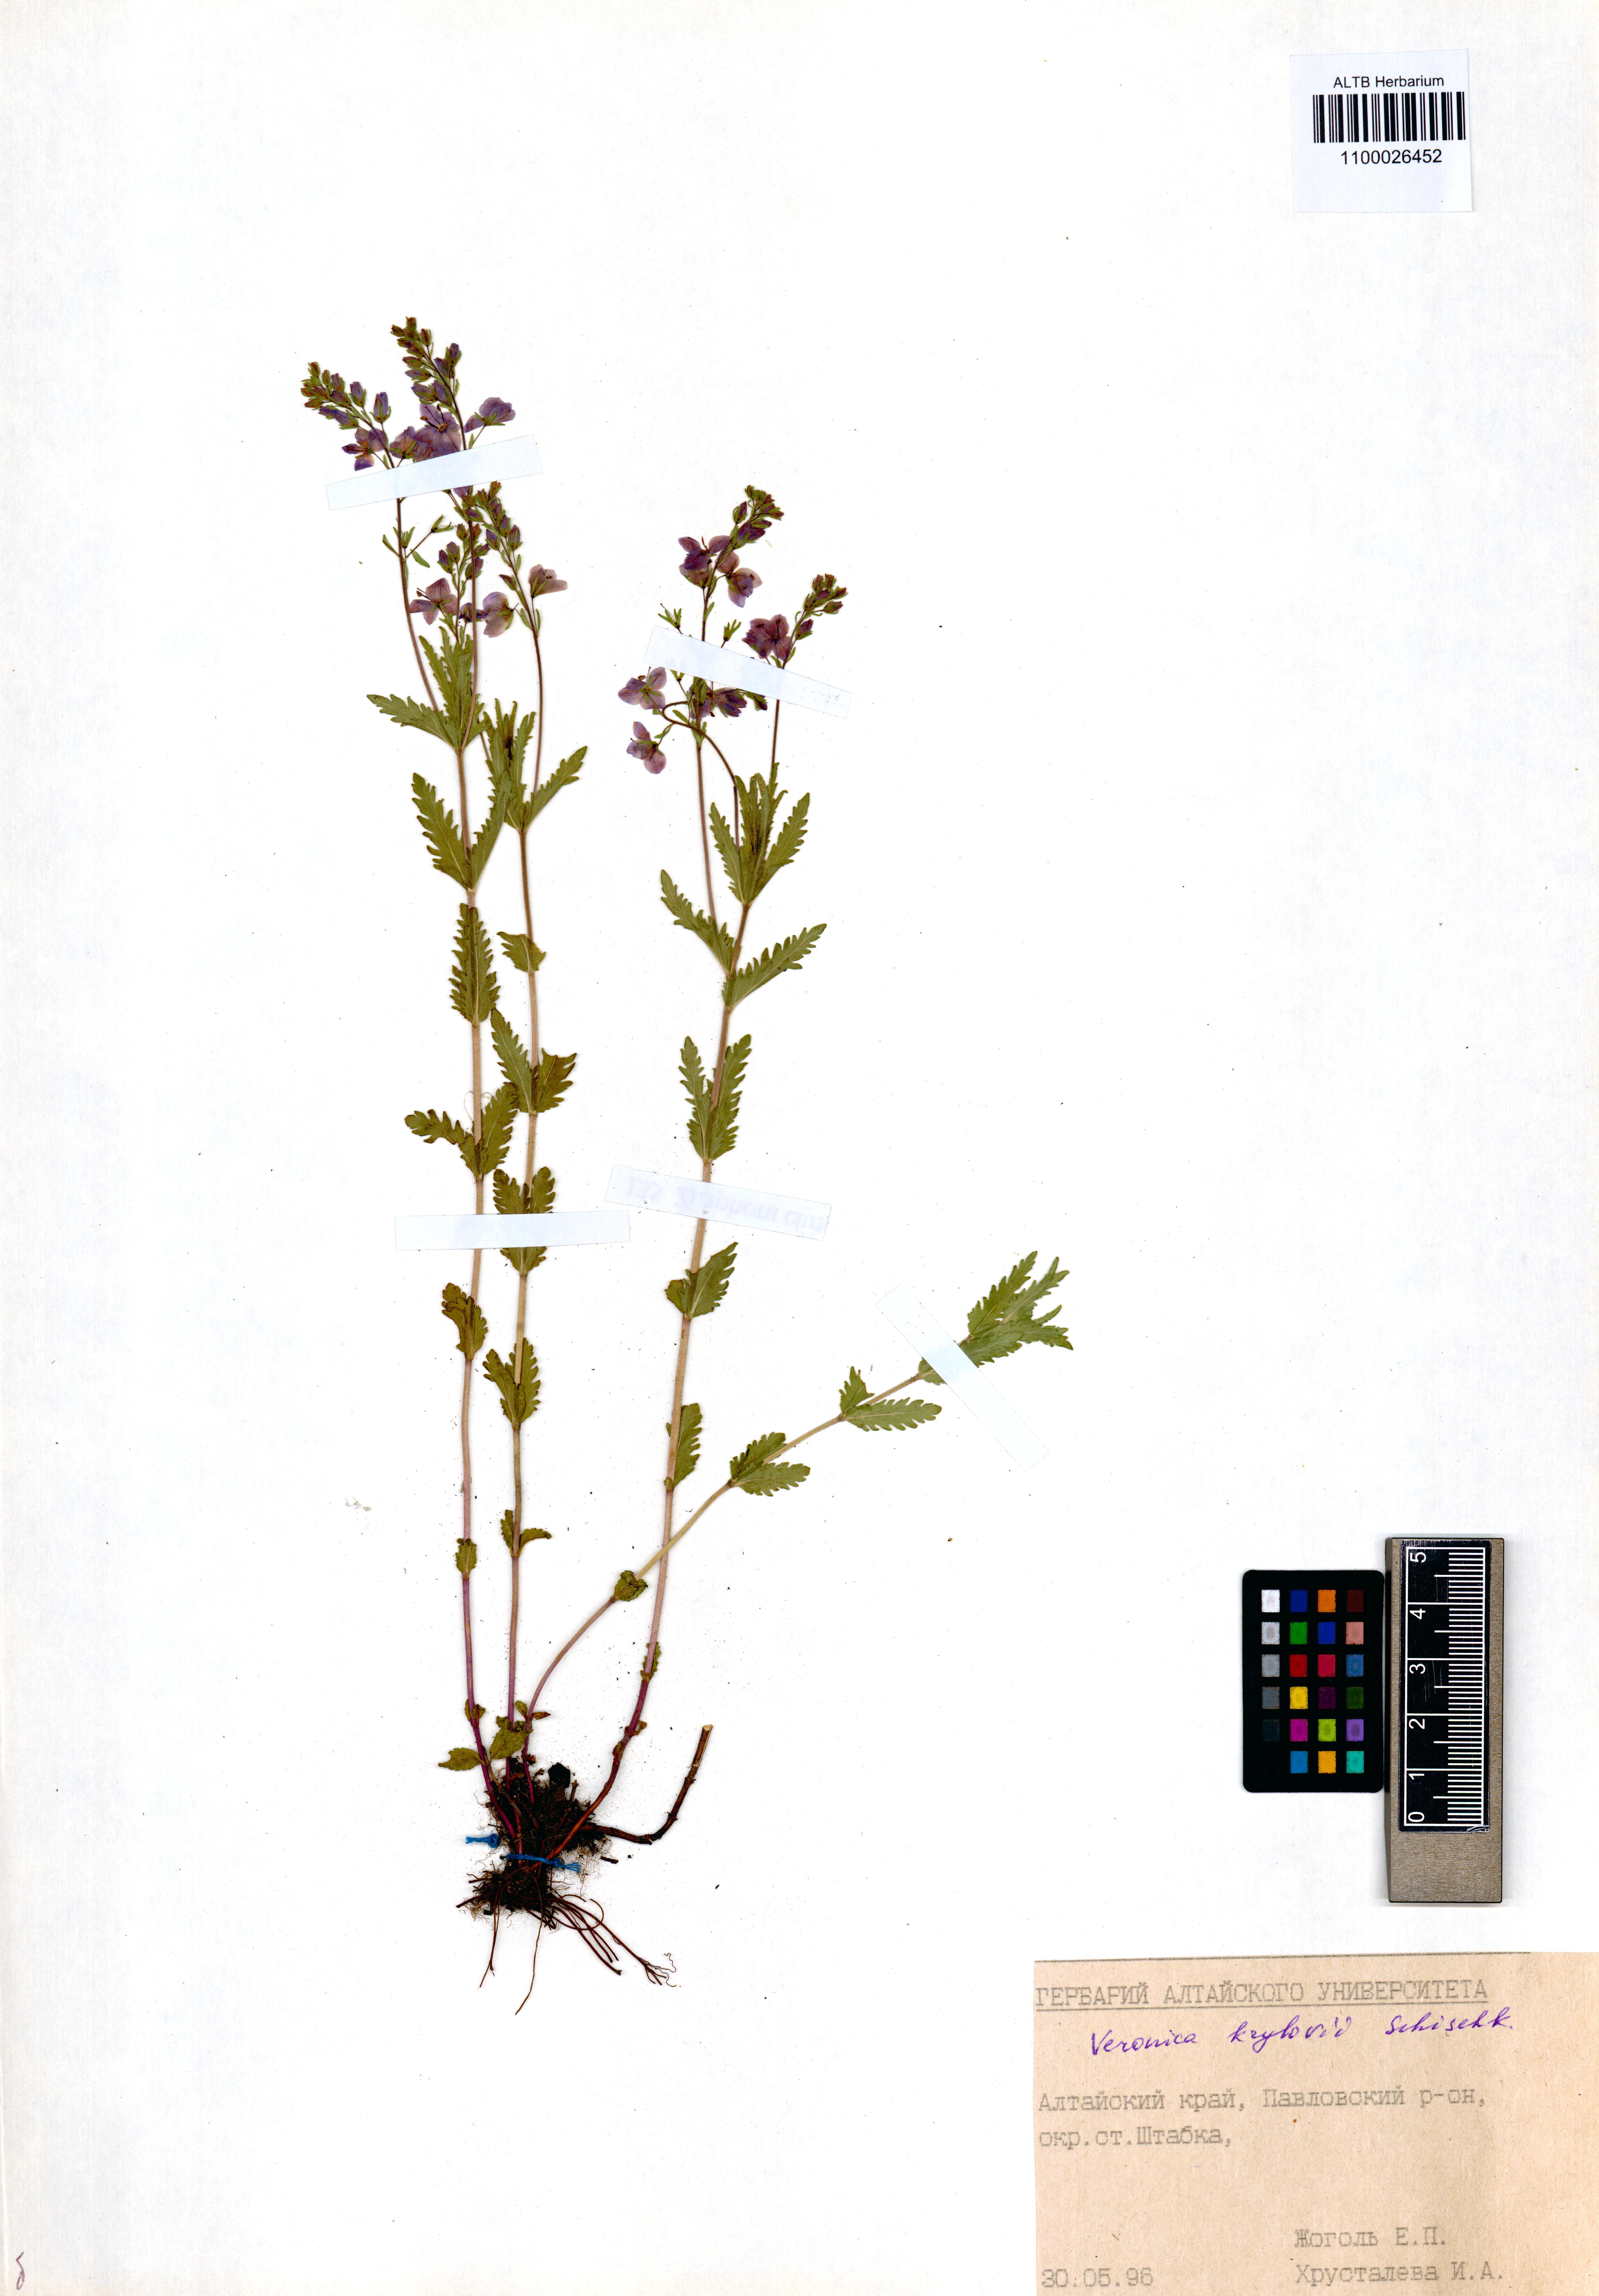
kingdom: Plantae
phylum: Tracheophyta
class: Magnoliopsida
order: Lamiales
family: Plantaginaceae
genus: Veronica
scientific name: Veronica krylovii
